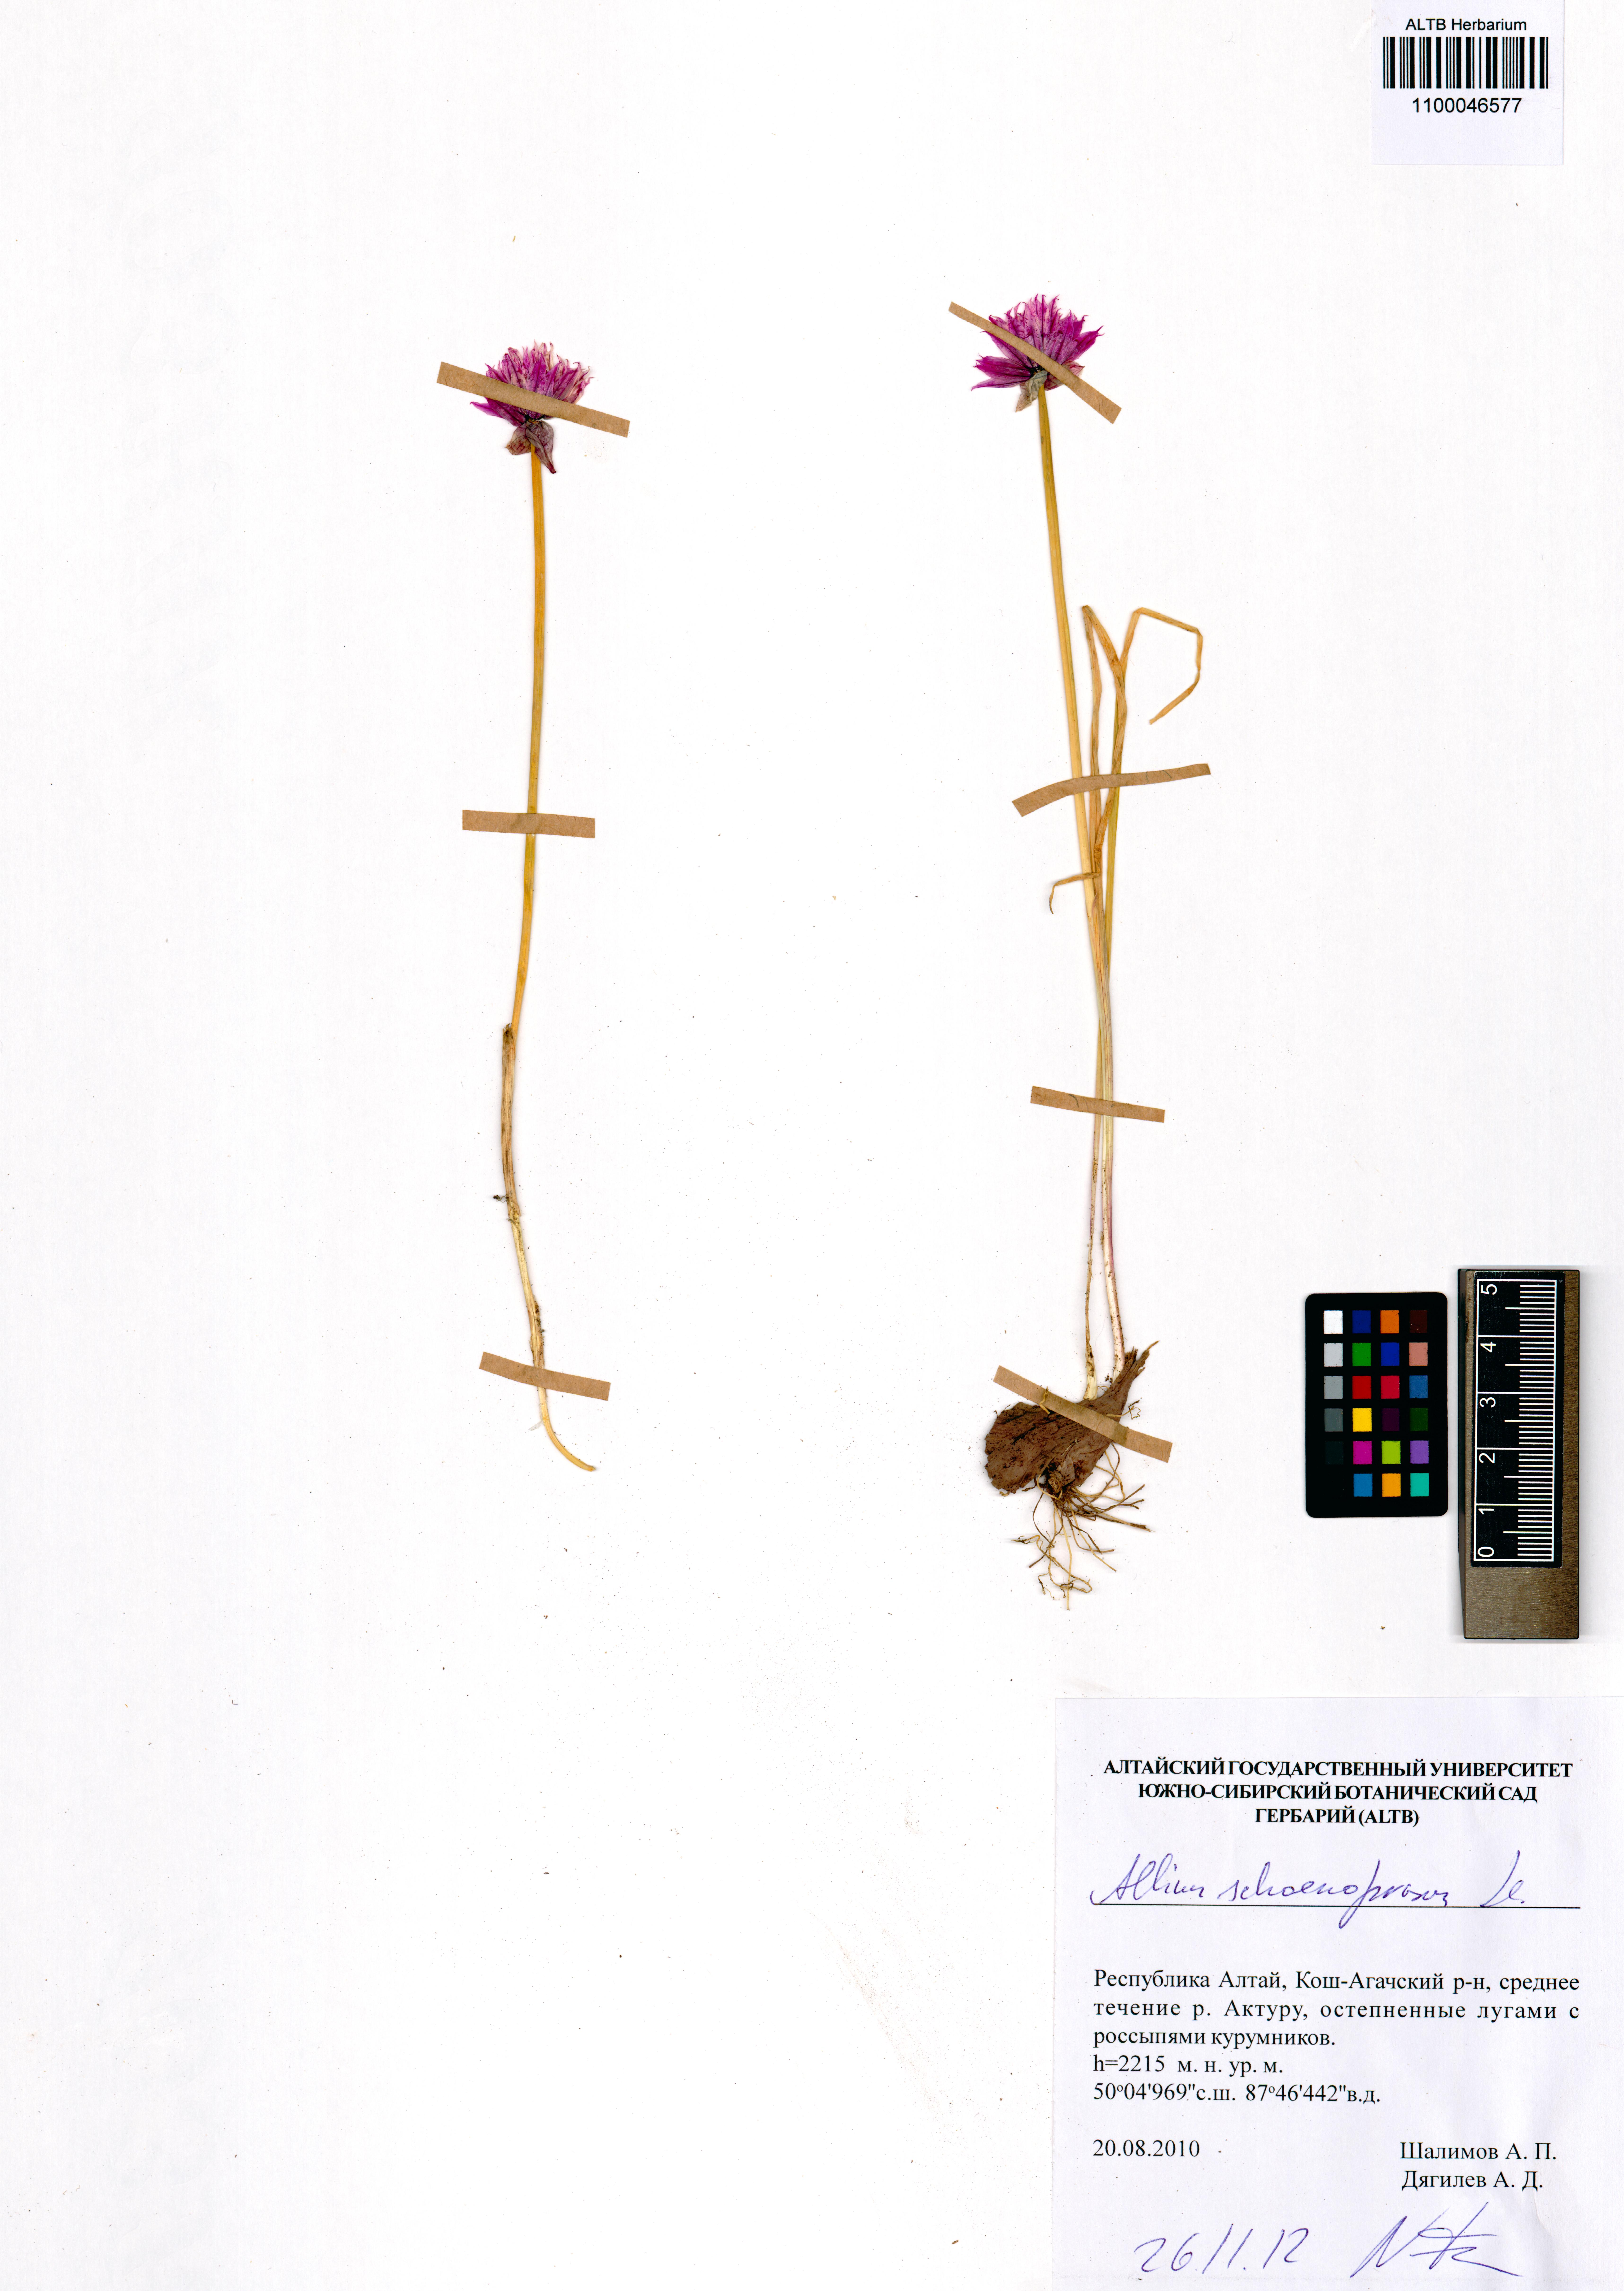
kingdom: Plantae
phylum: Tracheophyta
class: Liliopsida
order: Asparagales
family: Amaryllidaceae
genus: Allium
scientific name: Allium schoenoprasum
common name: Chives
